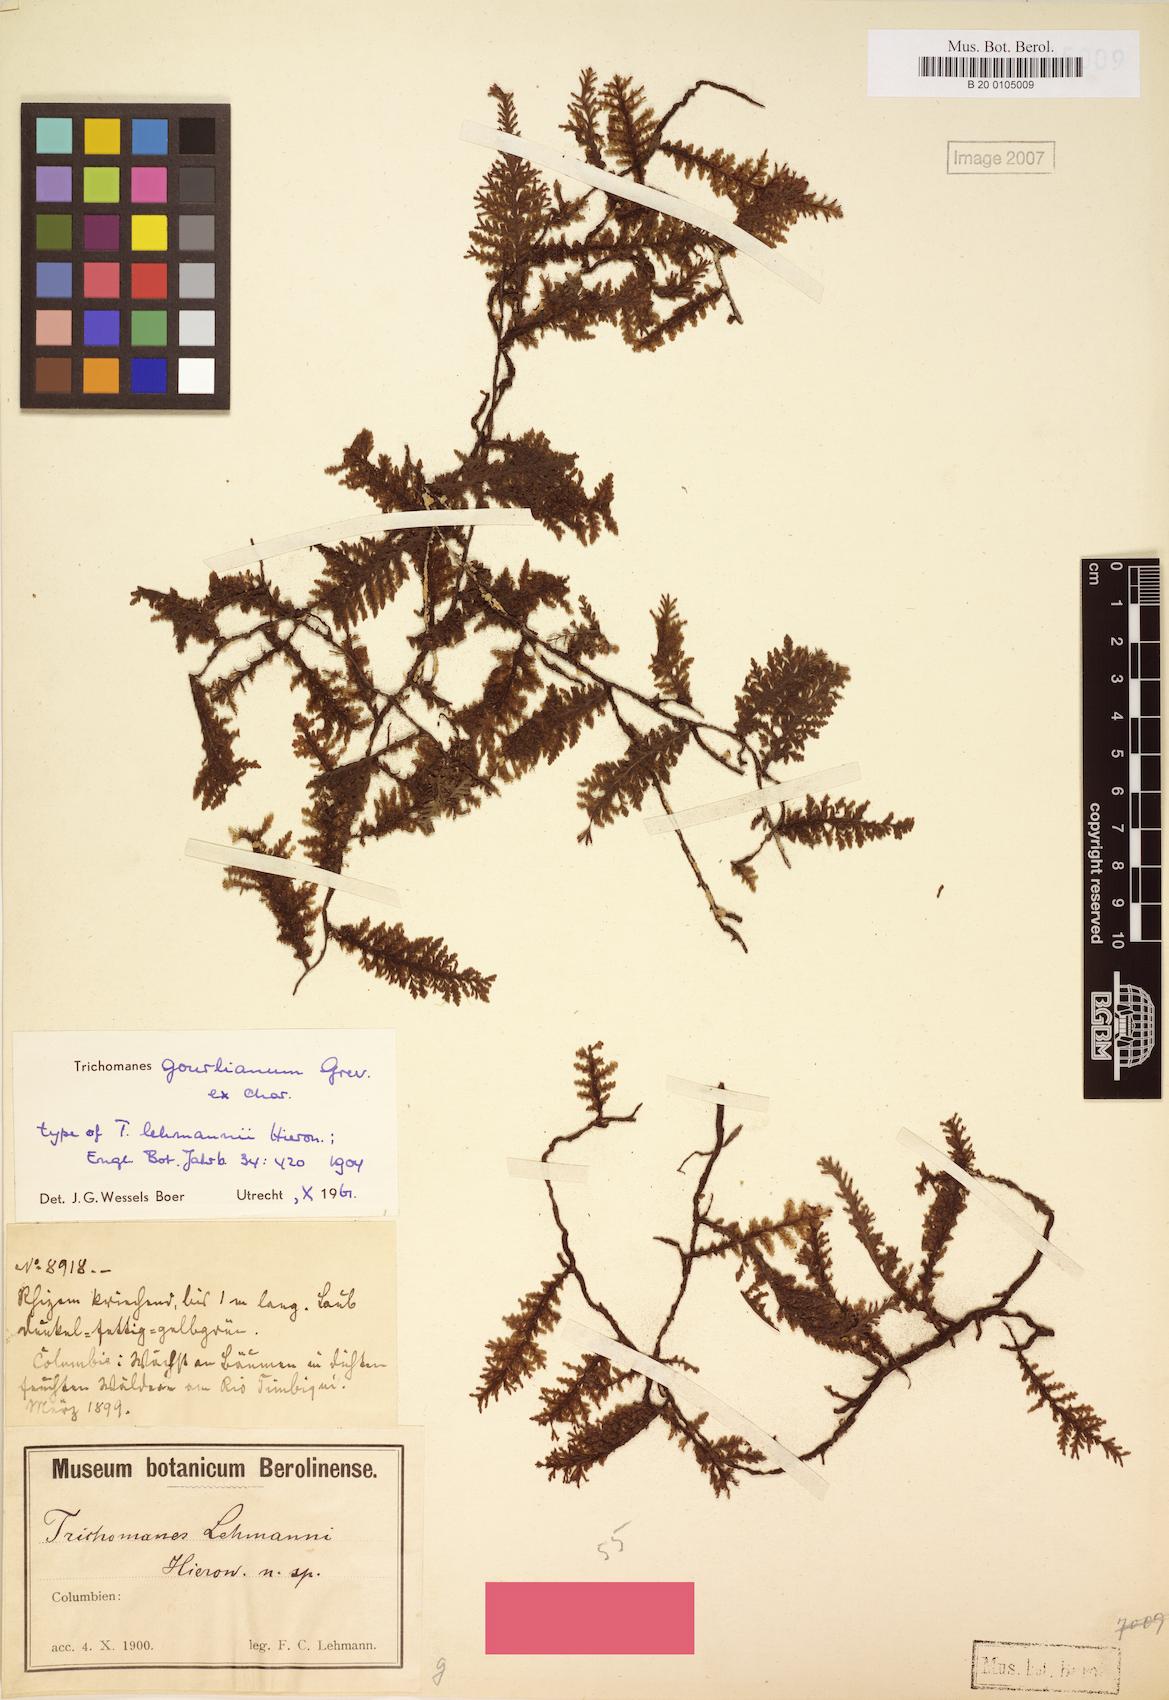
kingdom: Plantae
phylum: Tracheophyta
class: Polypodiopsida
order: Hymenophyllales
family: Hymenophyllaceae
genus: Didymoglossum
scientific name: Didymoglossum gourlianum
